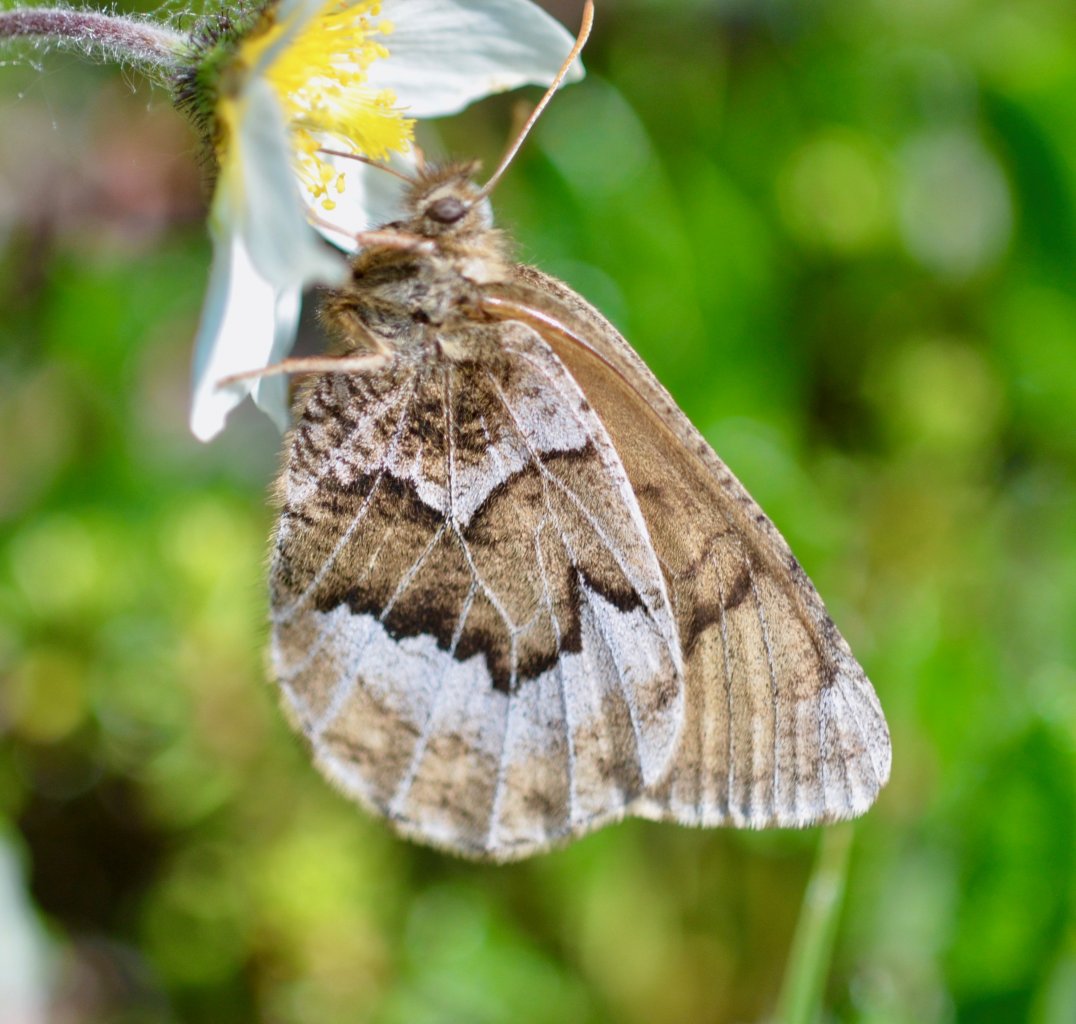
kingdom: Animalia
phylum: Arthropoda
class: Insecta
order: Lepidoptera
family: Nymphalidae
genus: Oeneis
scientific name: Oeneis bore
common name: White-veined Arctic
